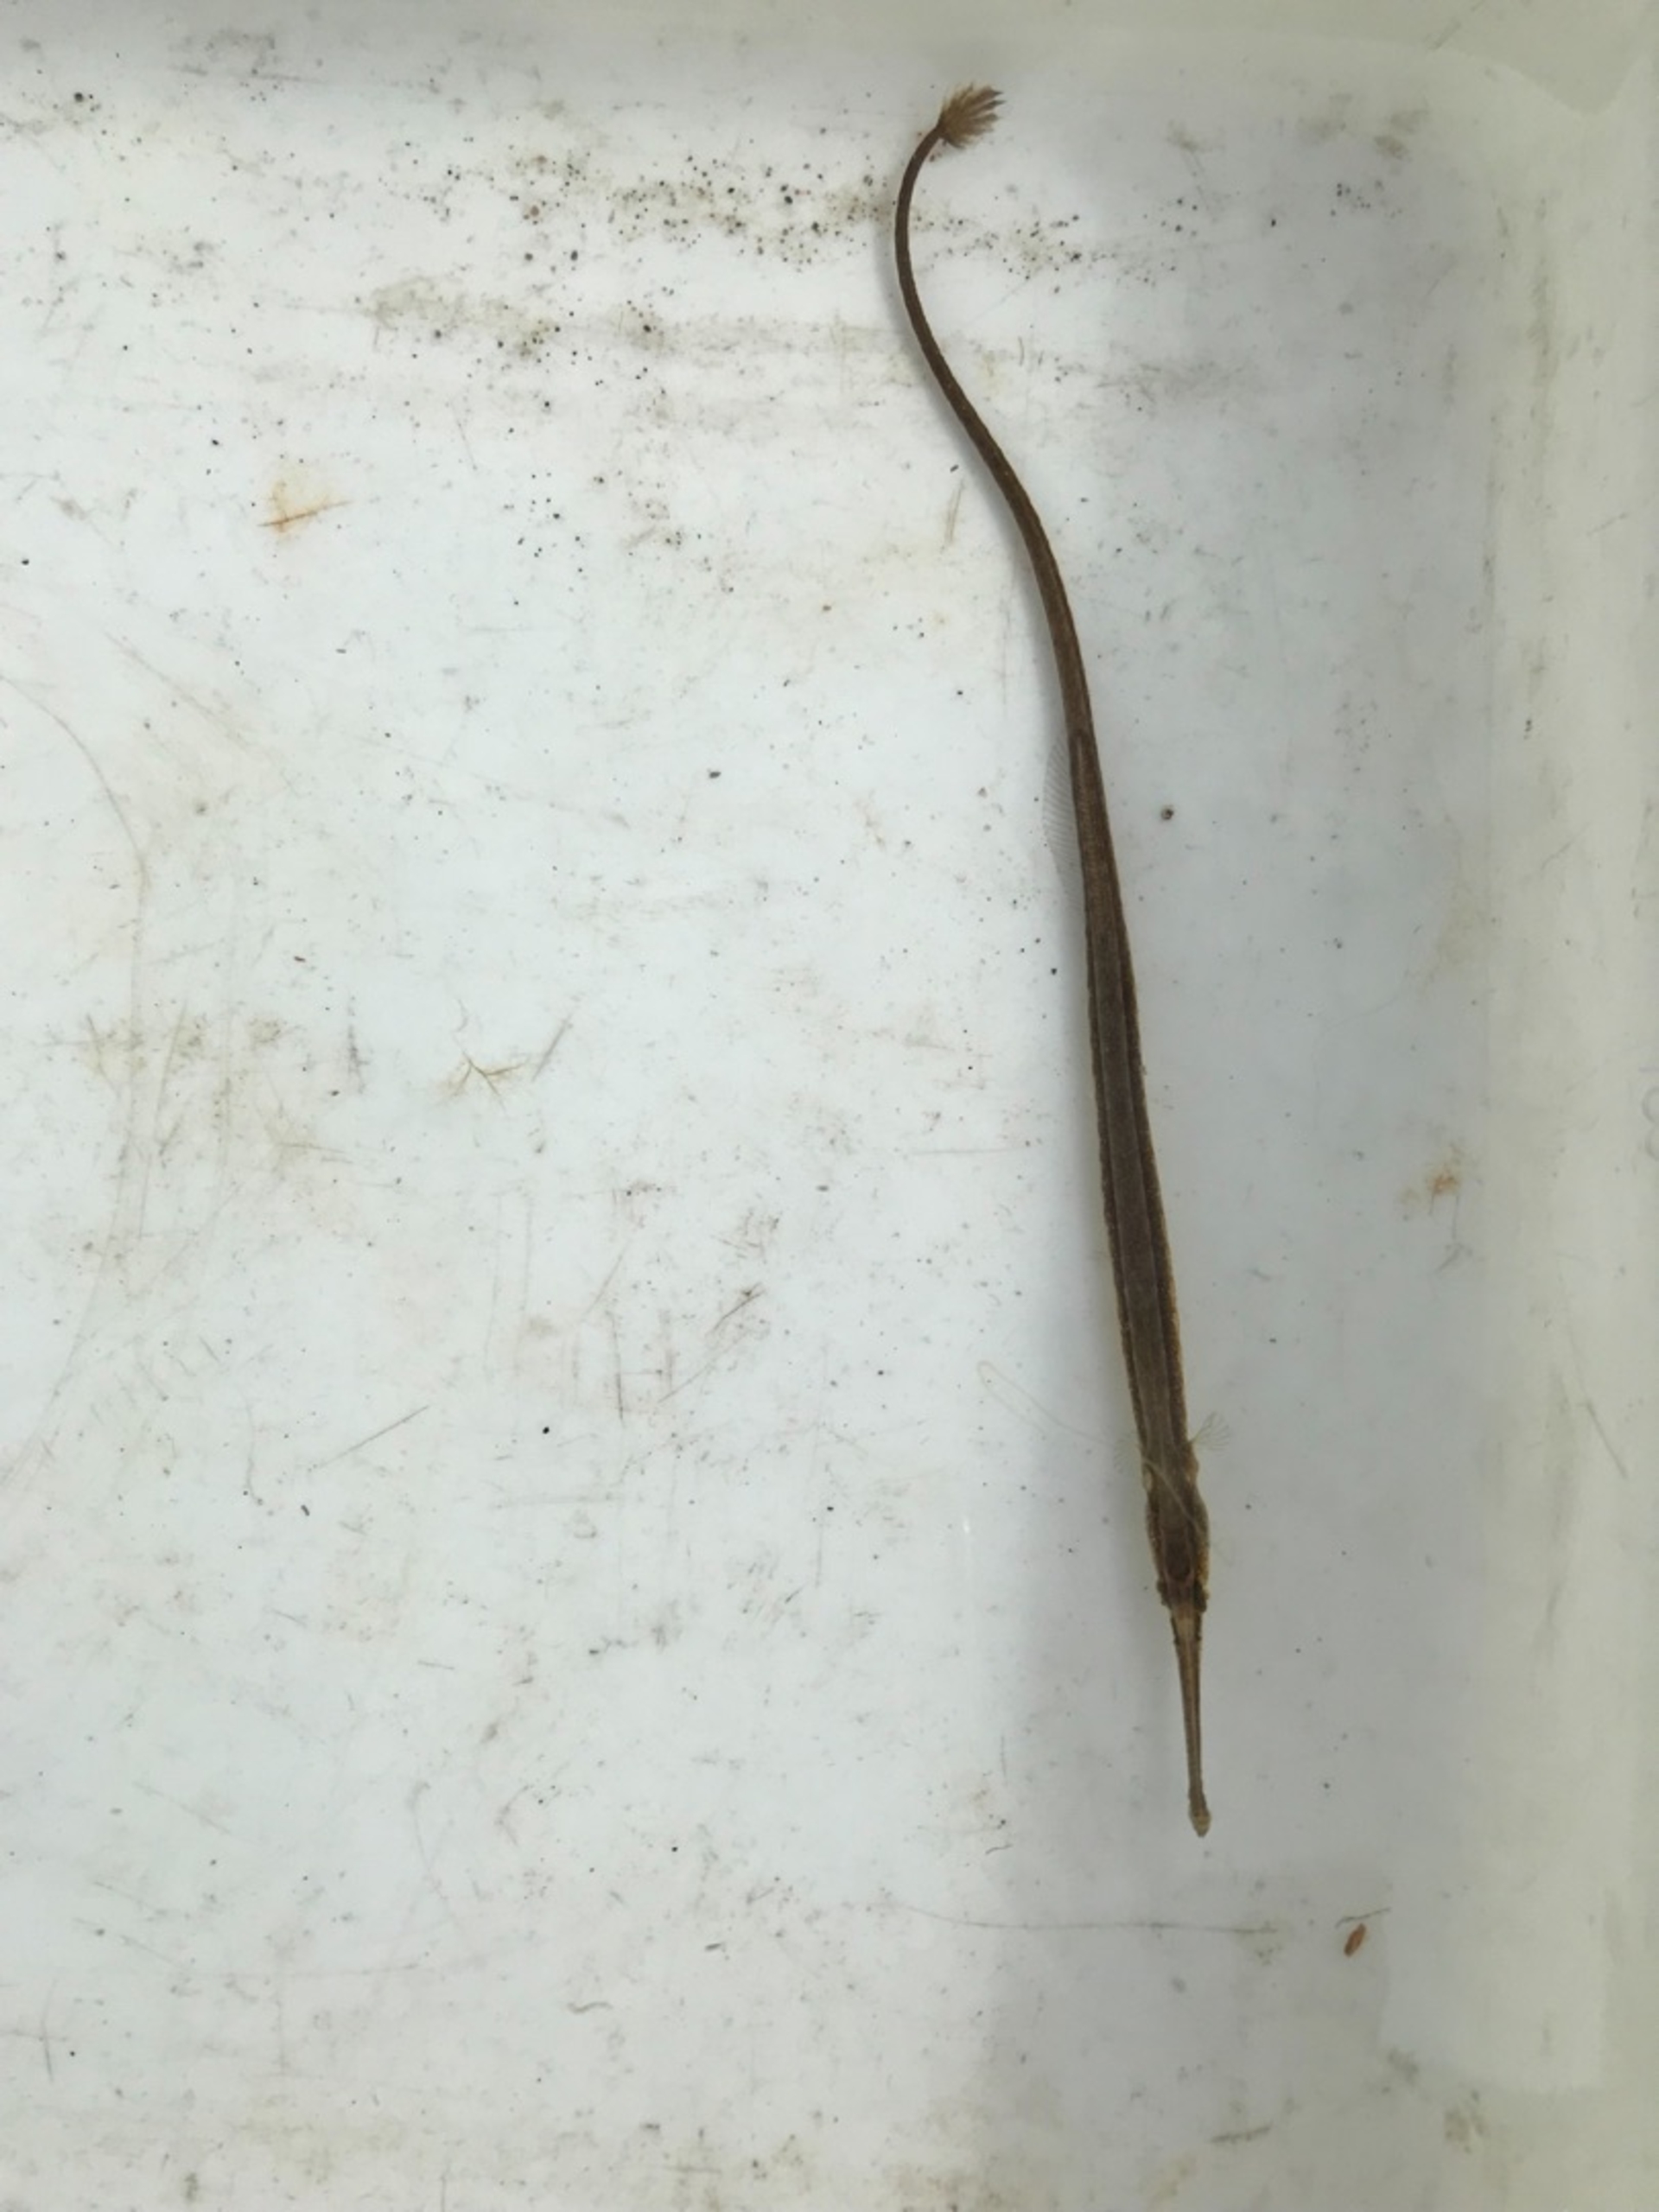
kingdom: Animalia
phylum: Chordata
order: Syngnathiformes
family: Syngnathidae
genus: Syngnathus
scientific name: Syngnathus typhle
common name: Almindelig tangnål
